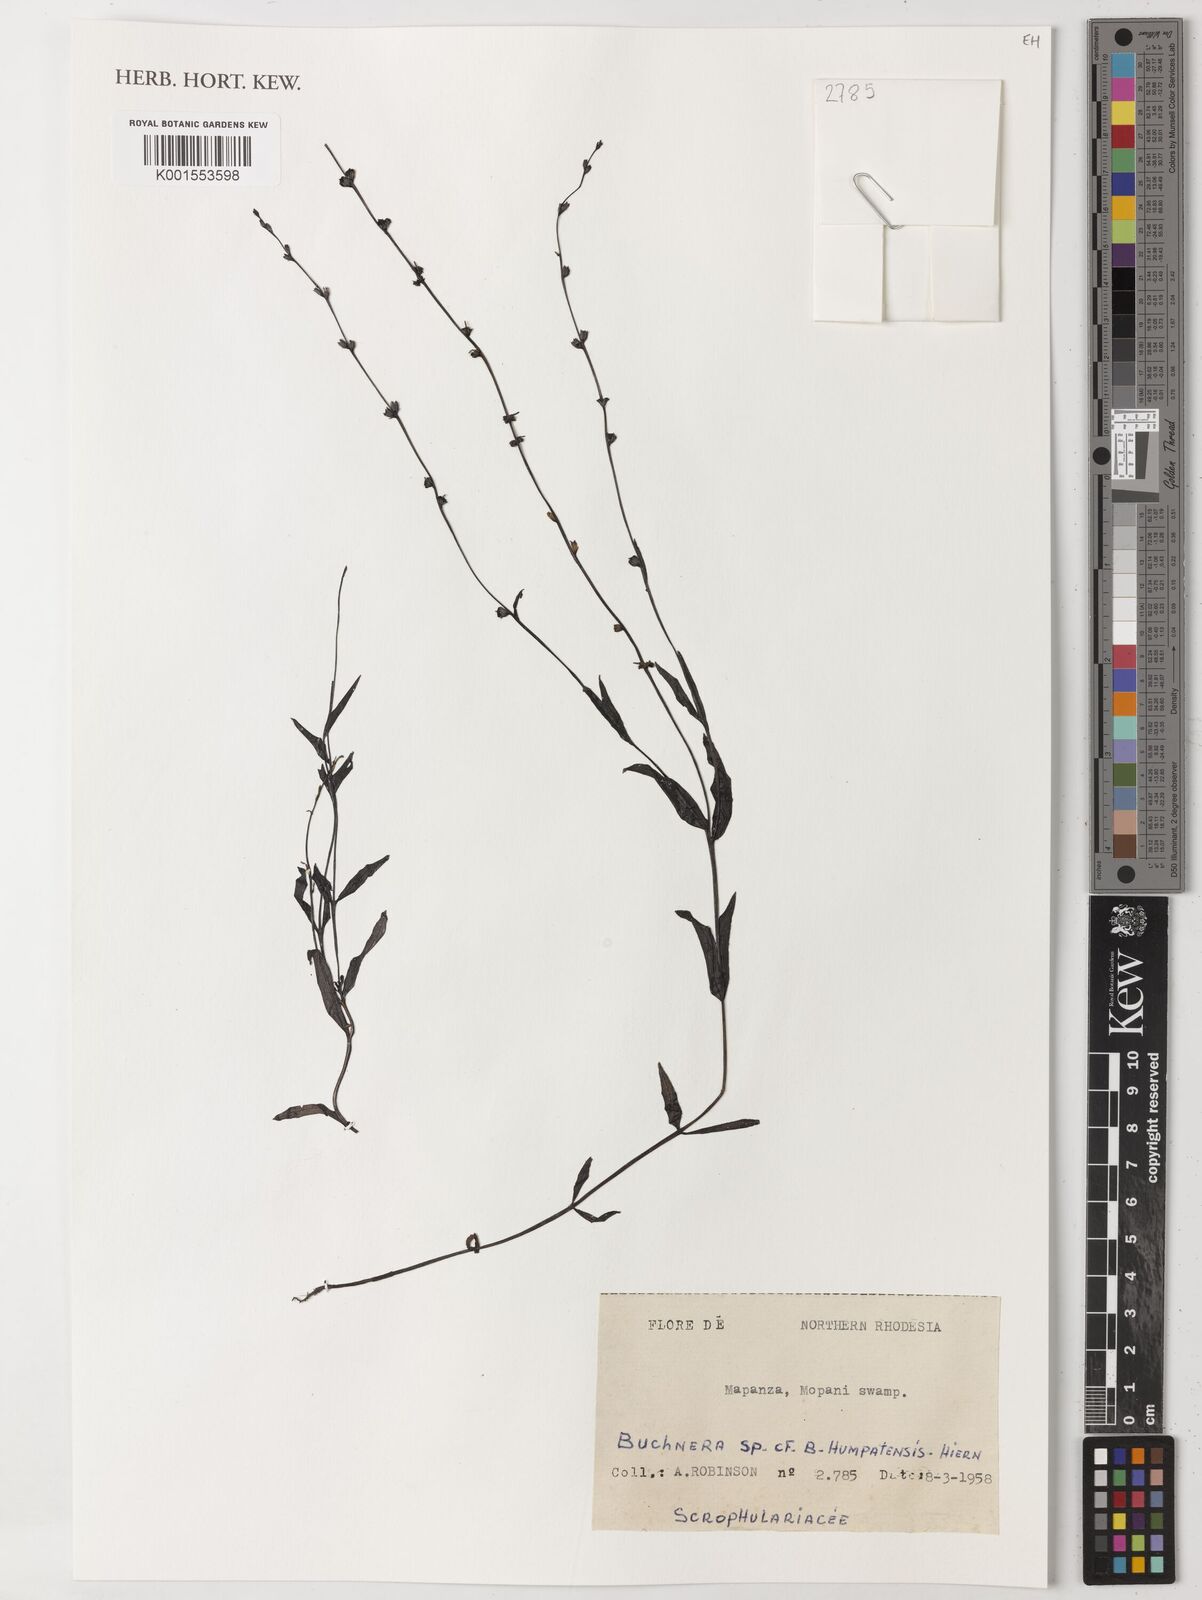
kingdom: Plantae
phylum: Tracheophyta
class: Magnoliopsida
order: Lamiales
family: Orobanchaceae
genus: Buchnera
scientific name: Buchnera humpatensis
